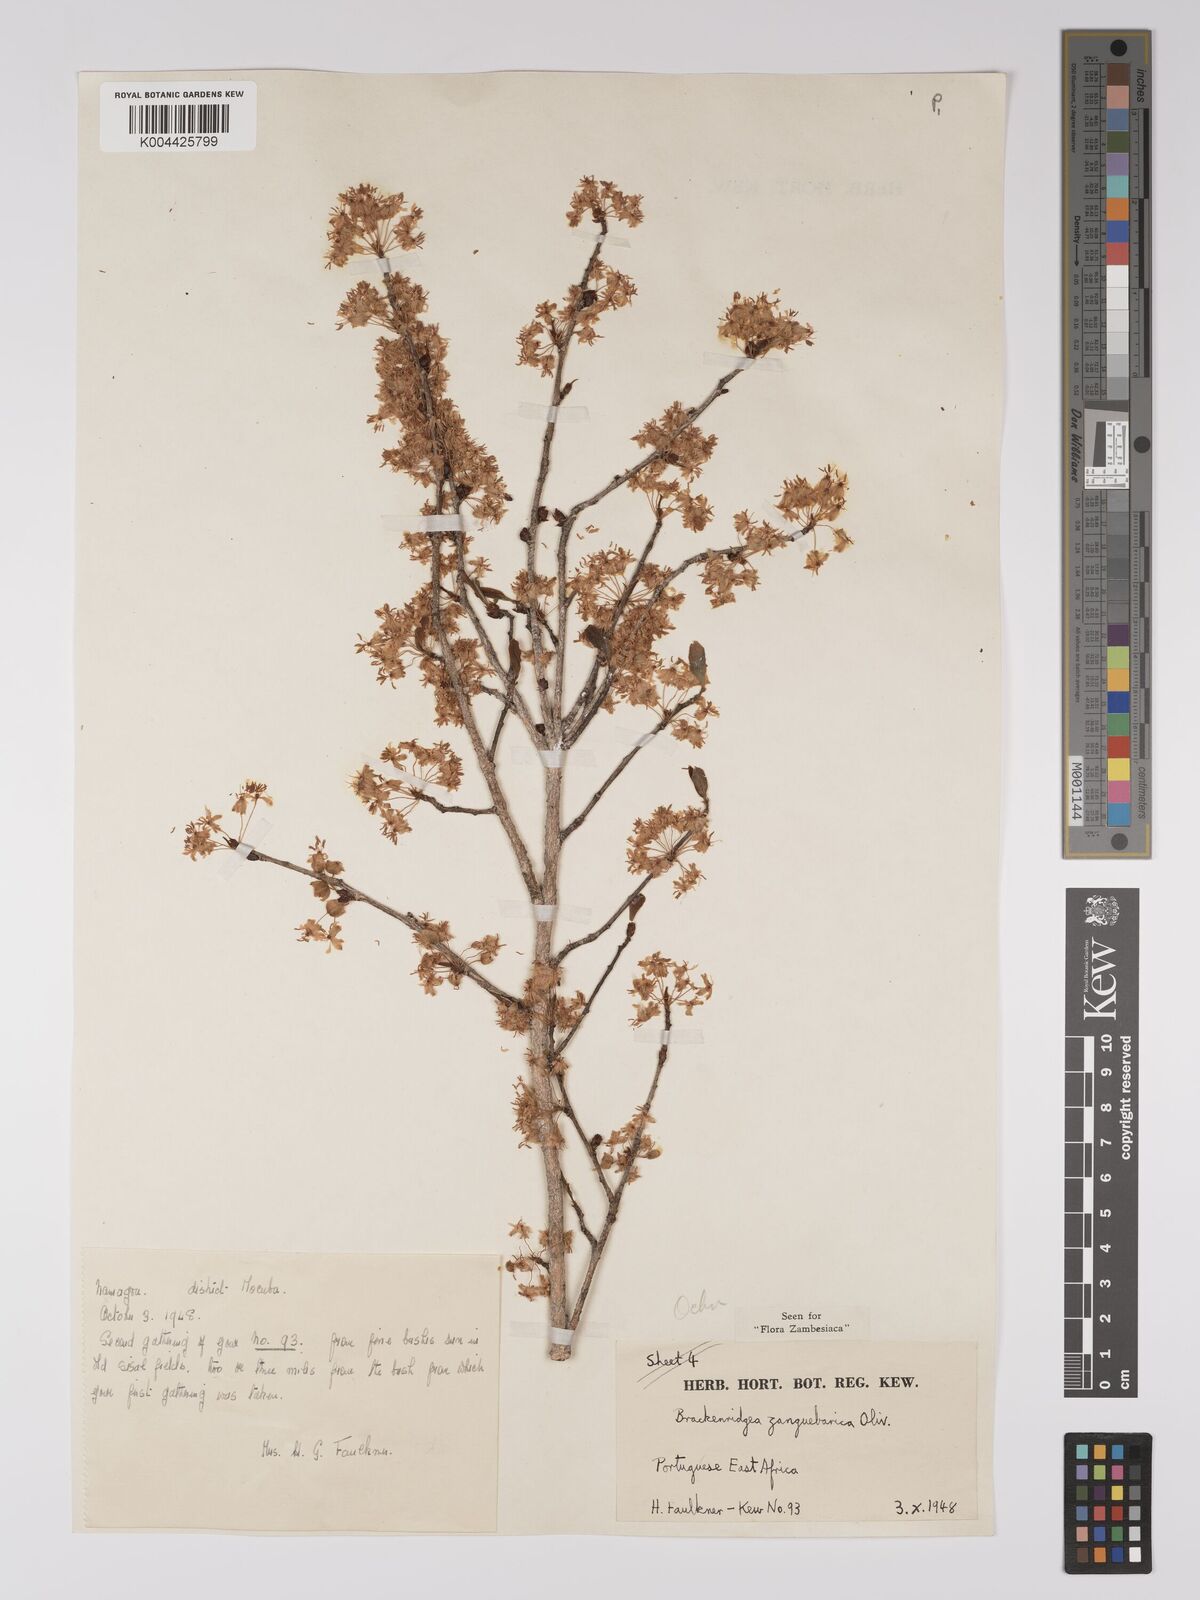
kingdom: Plantae
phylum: Tracheophyta
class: Magnoliopsida
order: Malpighiales
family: Ochnaceae
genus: Brackenridgea
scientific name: Brackenridgea zanguebarica
